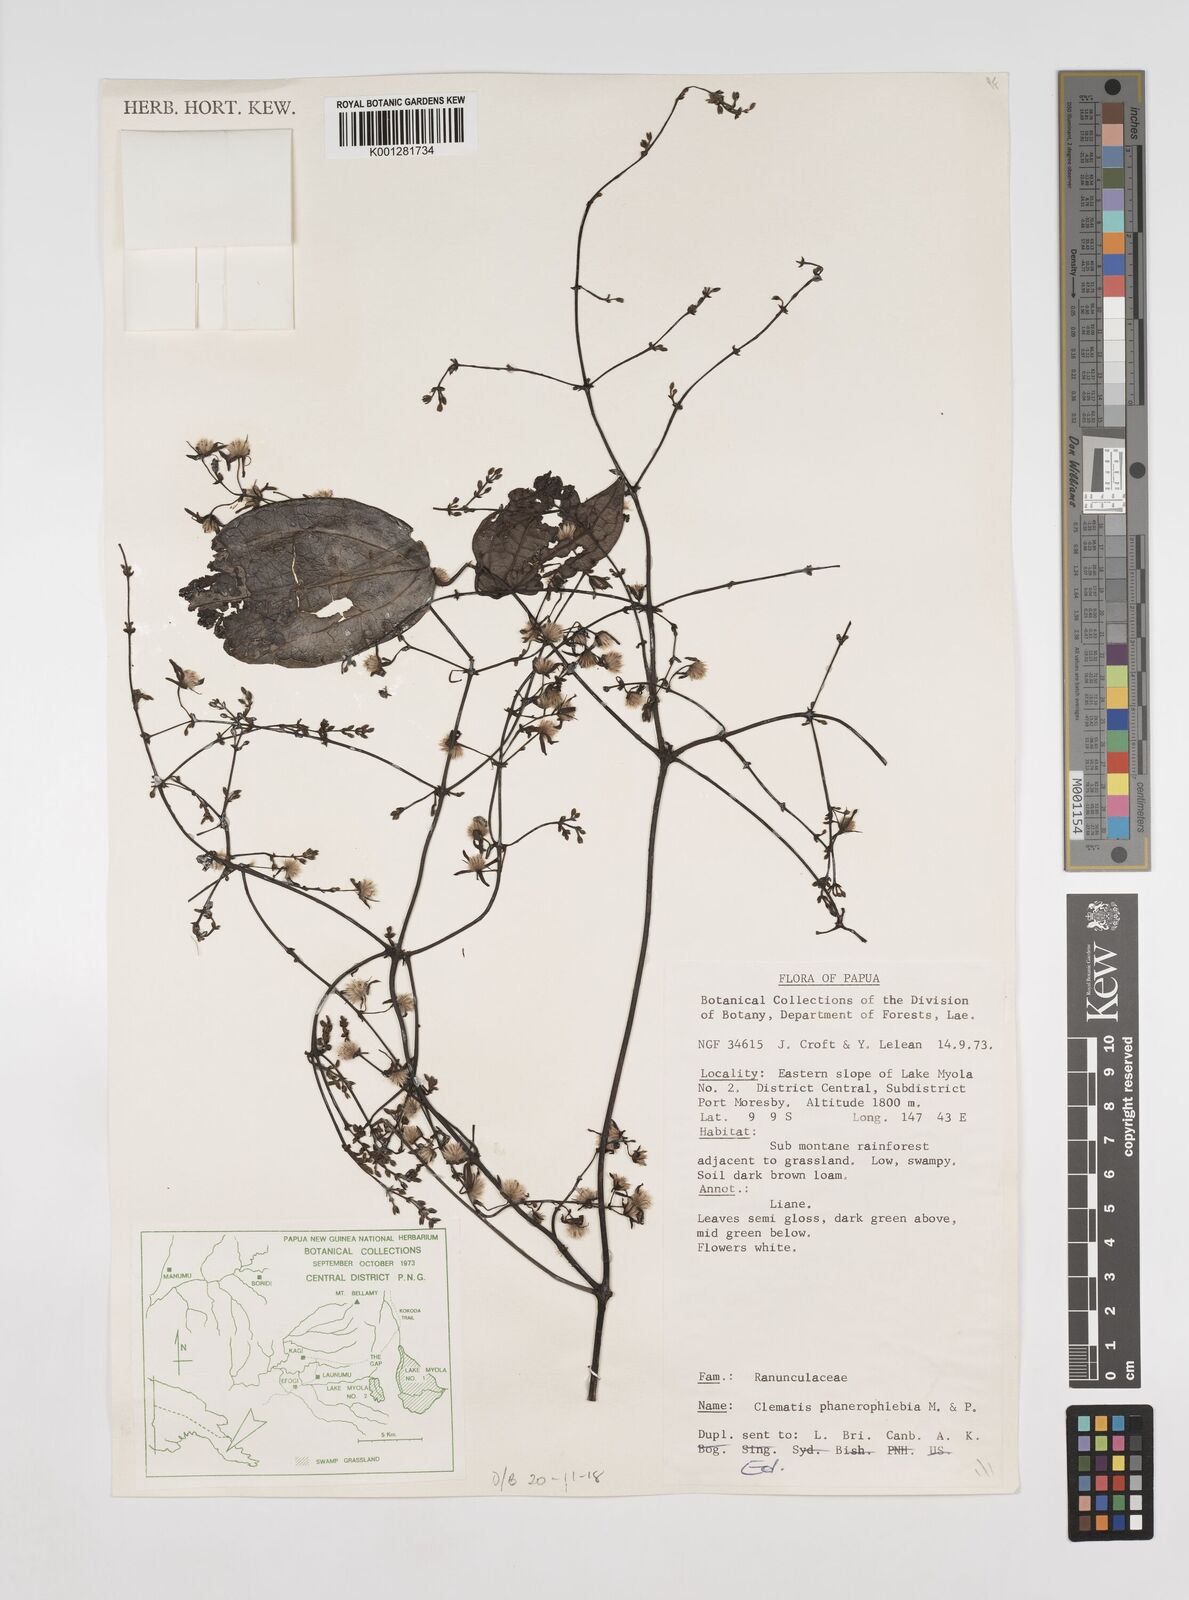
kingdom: Plantae
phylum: Tracheophyta
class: Magnoliopsida
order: Ranunculales
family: Ranunculaceae
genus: Clematis
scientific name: Clematis phanerophlebia
